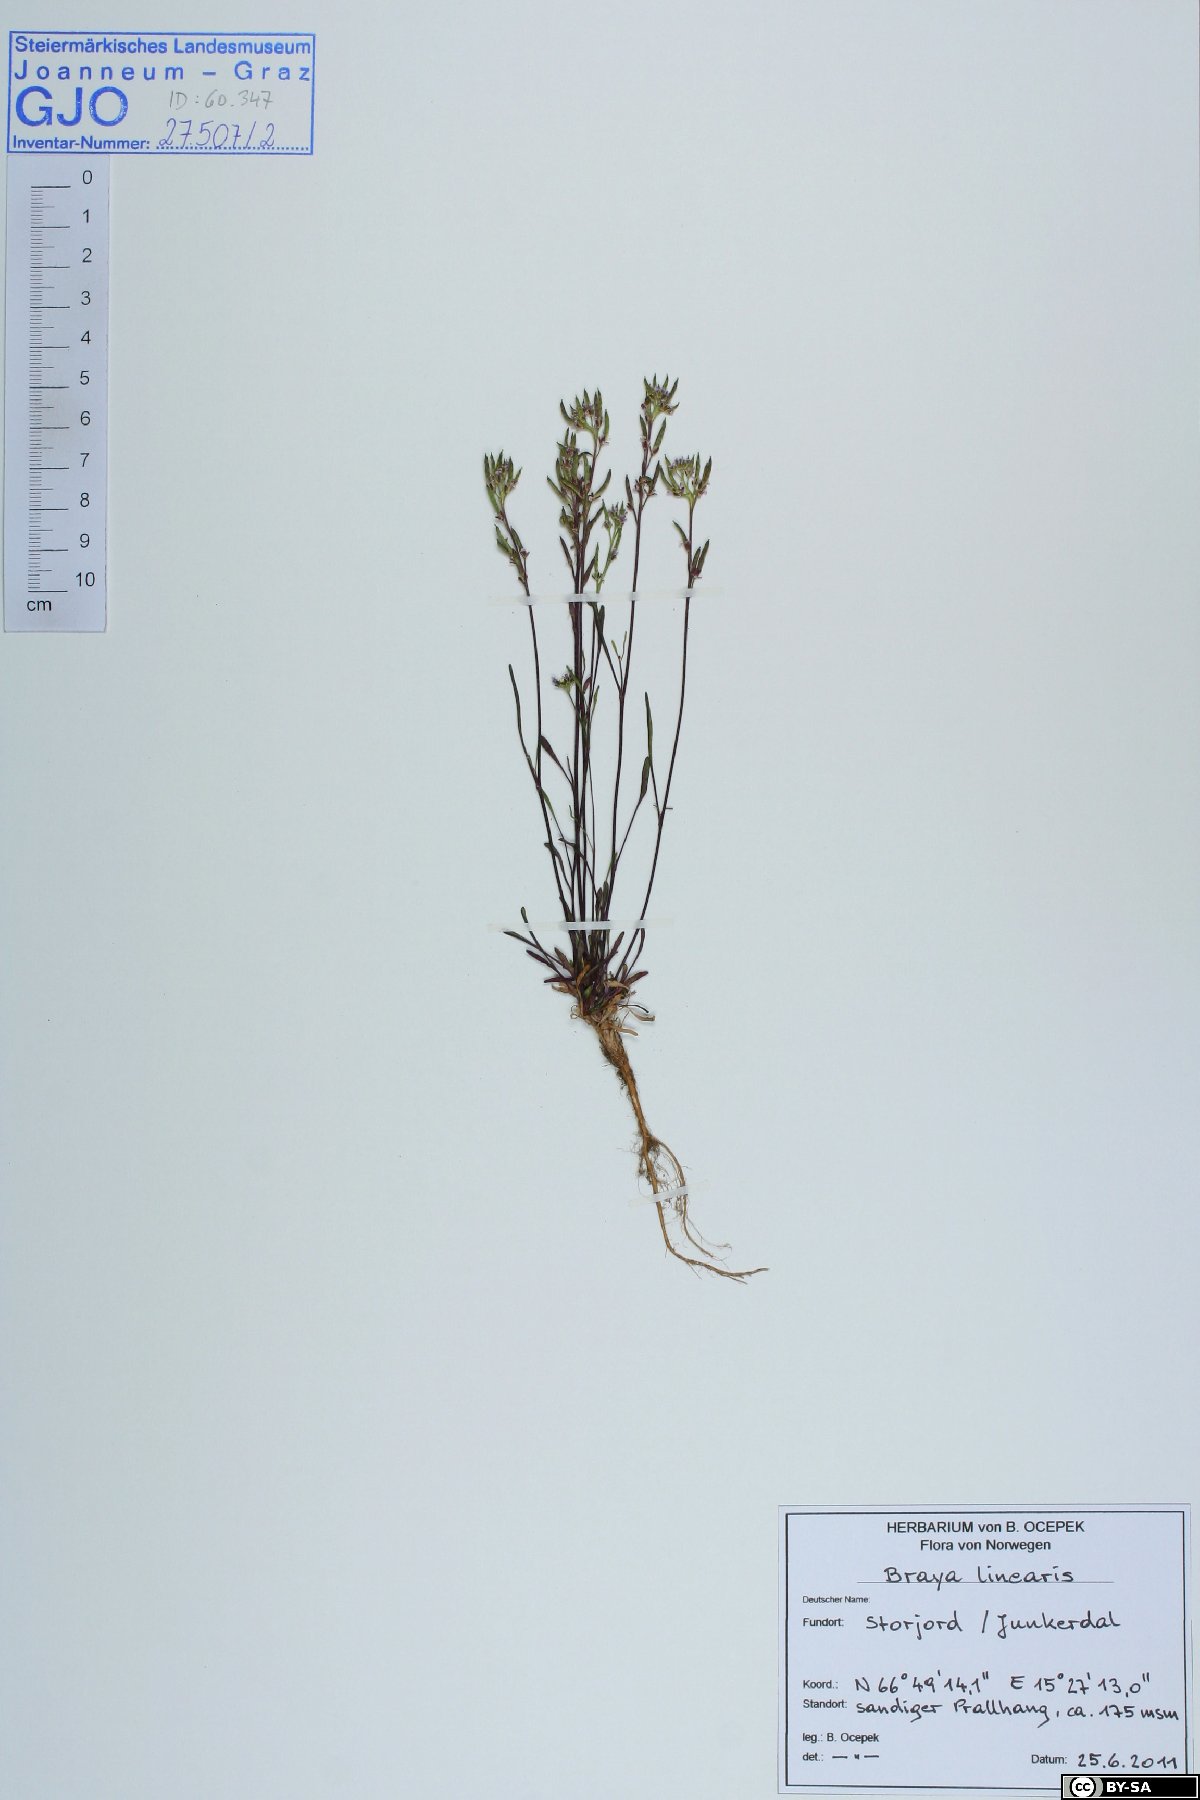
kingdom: Plantae
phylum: Tracheophyta
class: Magnoliopsida
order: Brassicales
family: Brassicaceae
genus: Braya
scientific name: Braya linearis
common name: Narrow-fruit braya
